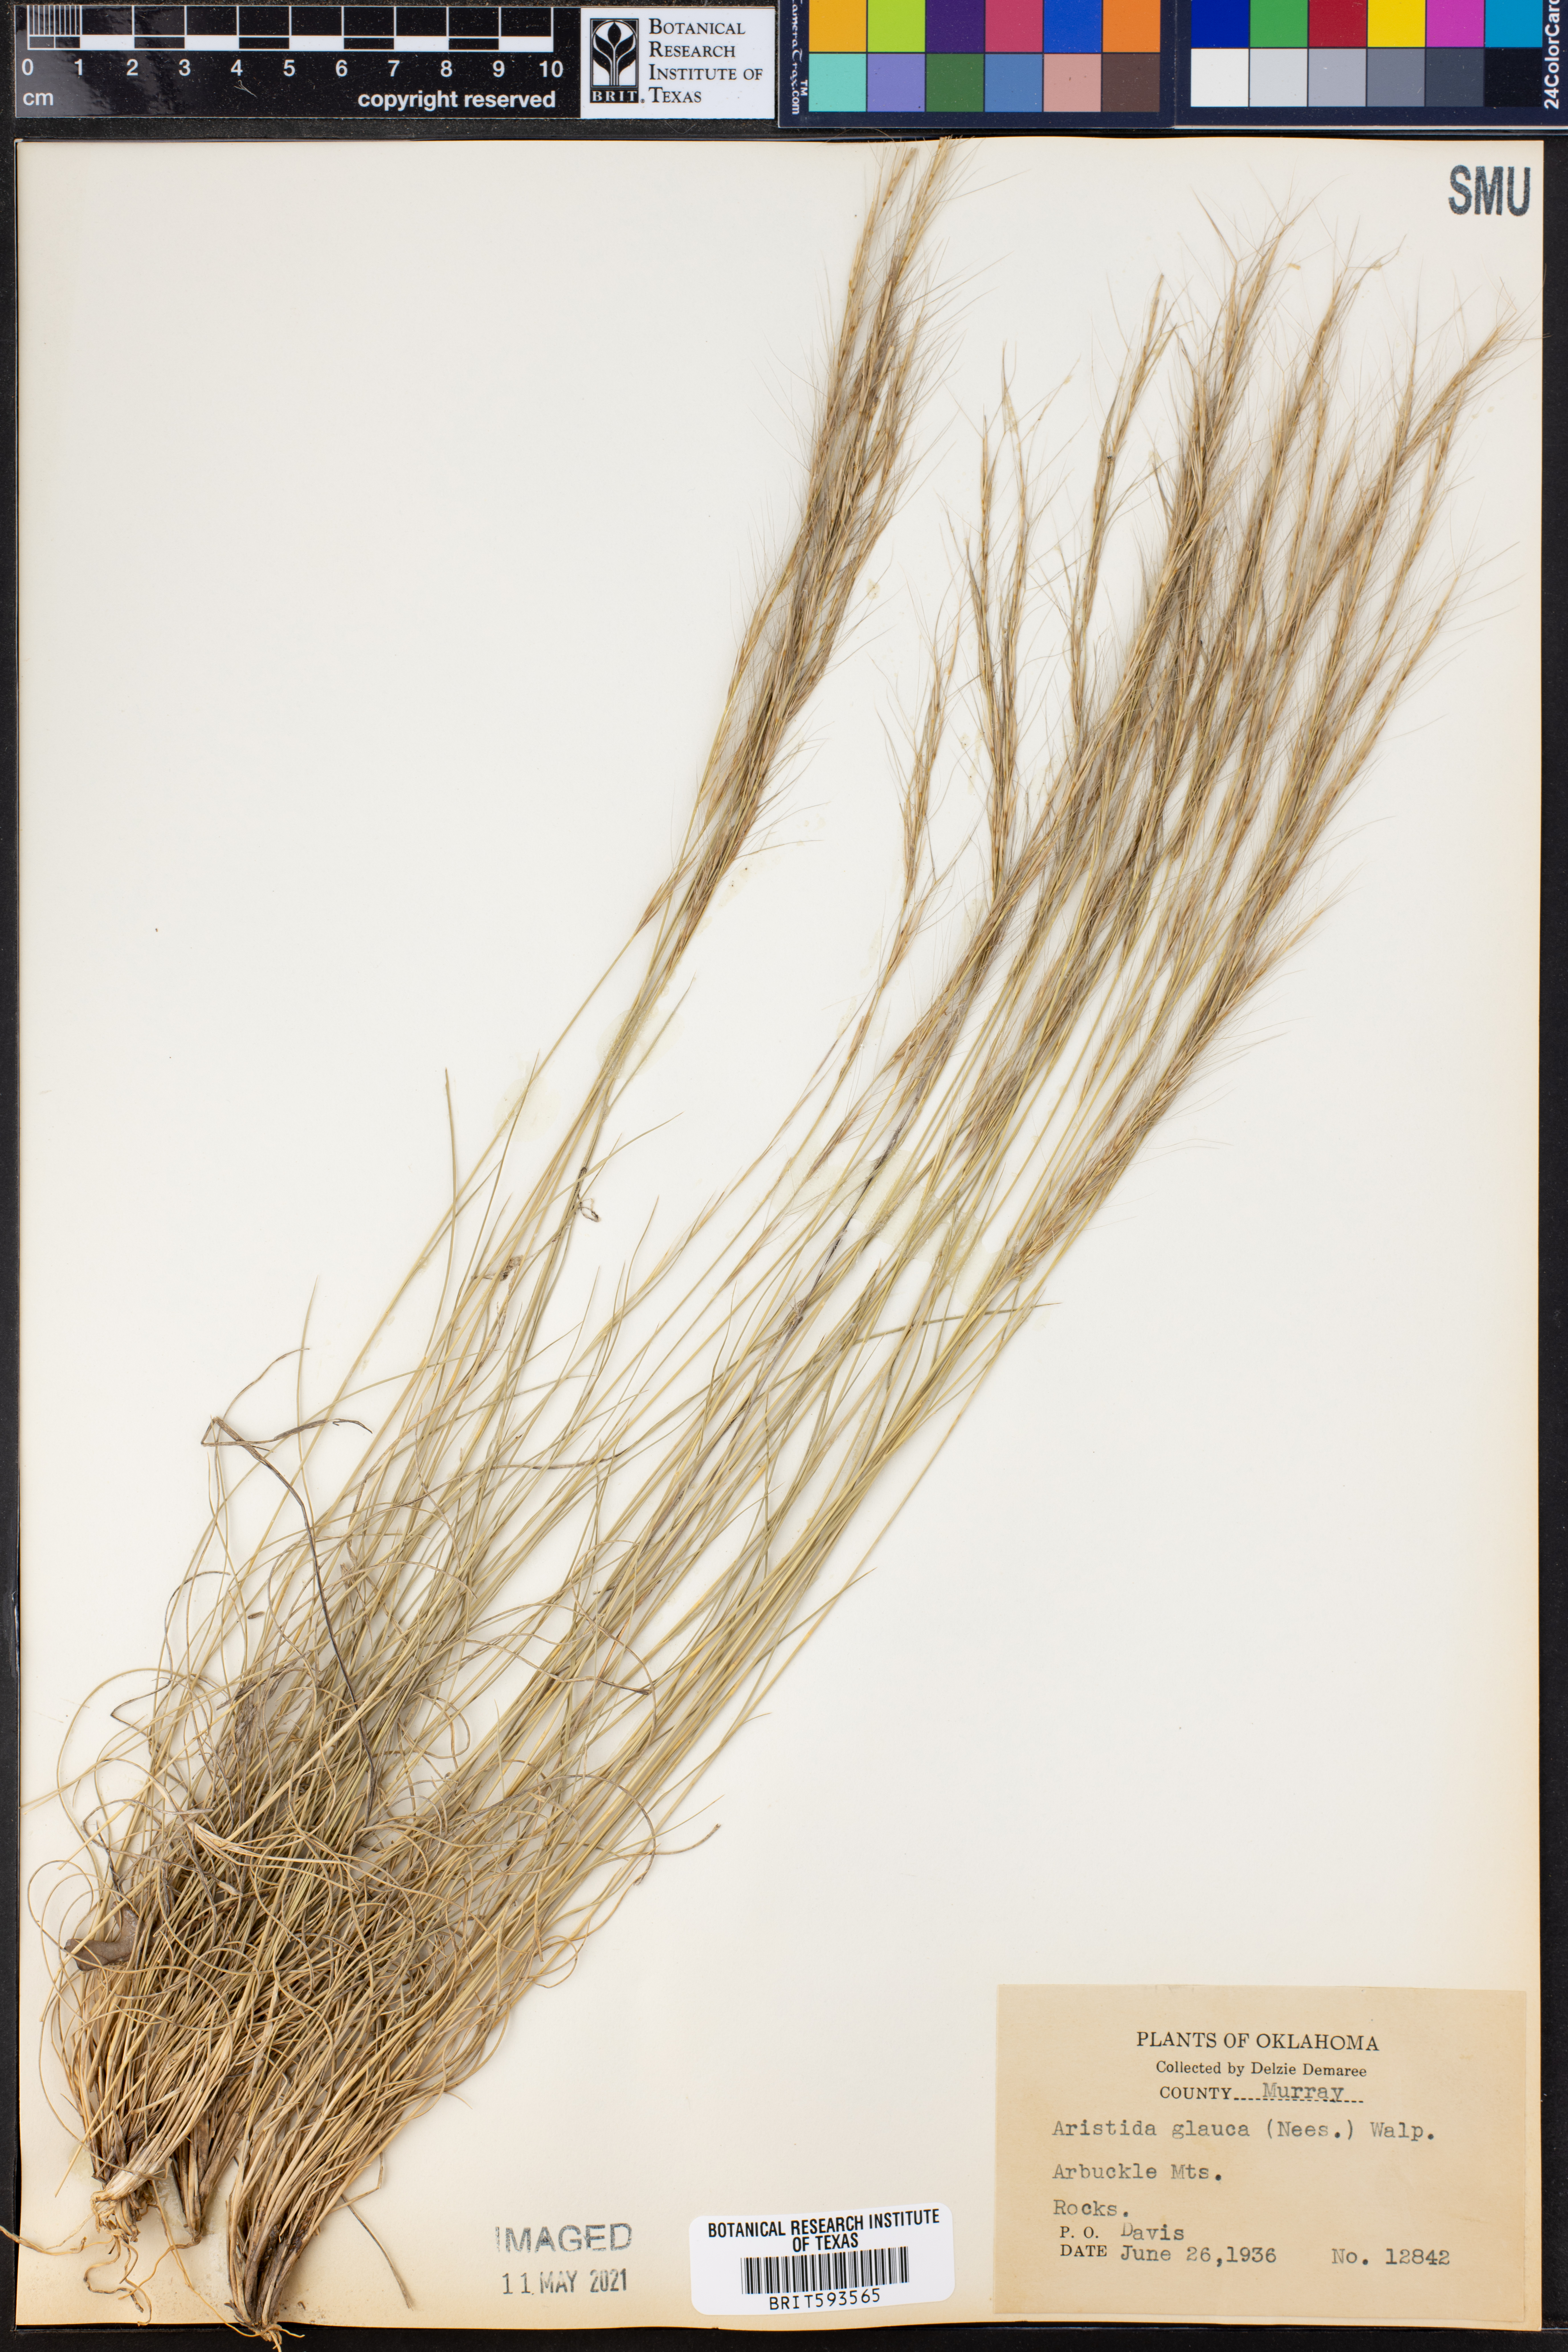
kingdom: Plantae
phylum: Tracheophyta
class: Liliopsida
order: Poales
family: Poaceae
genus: Aristida
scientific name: Aristida glauca
